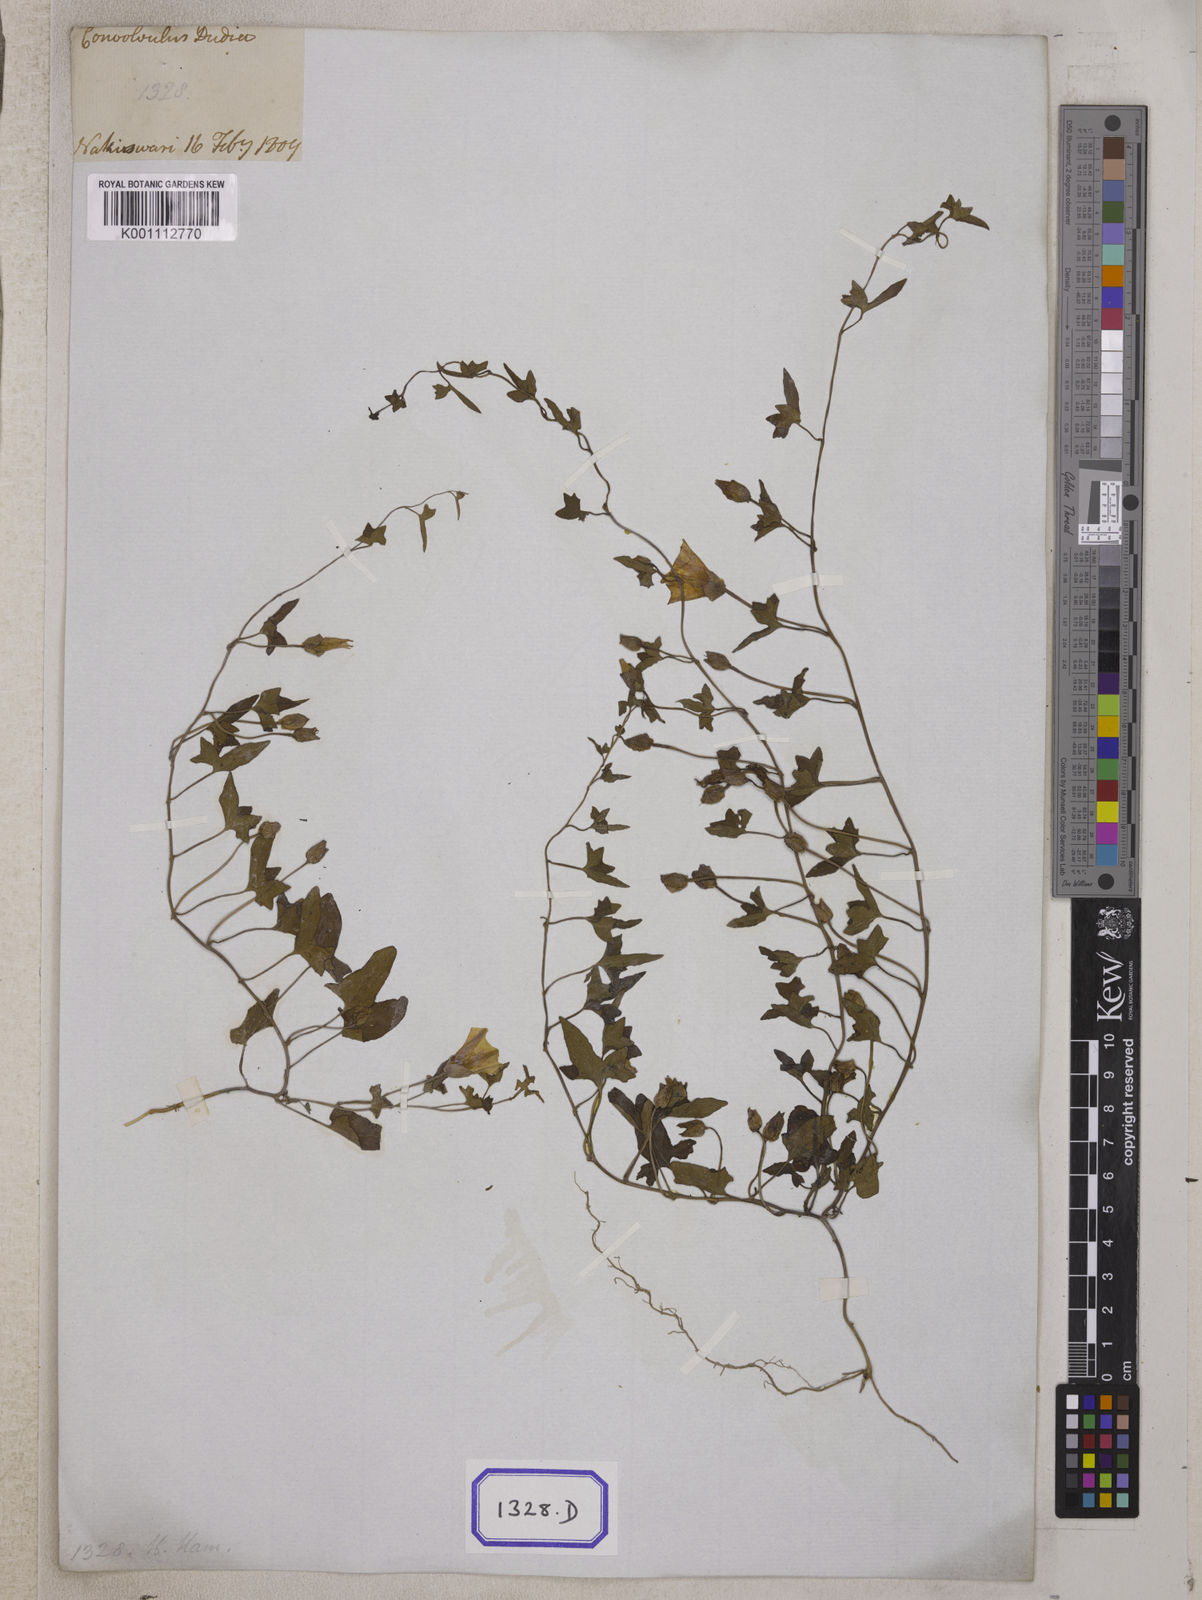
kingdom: Plantae
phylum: Tracheophyta
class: Magnoliopsida
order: Solanales
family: Convolvulaceae
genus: Calystegia
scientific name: Calystegia hederacea
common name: Japanese false bindweed
